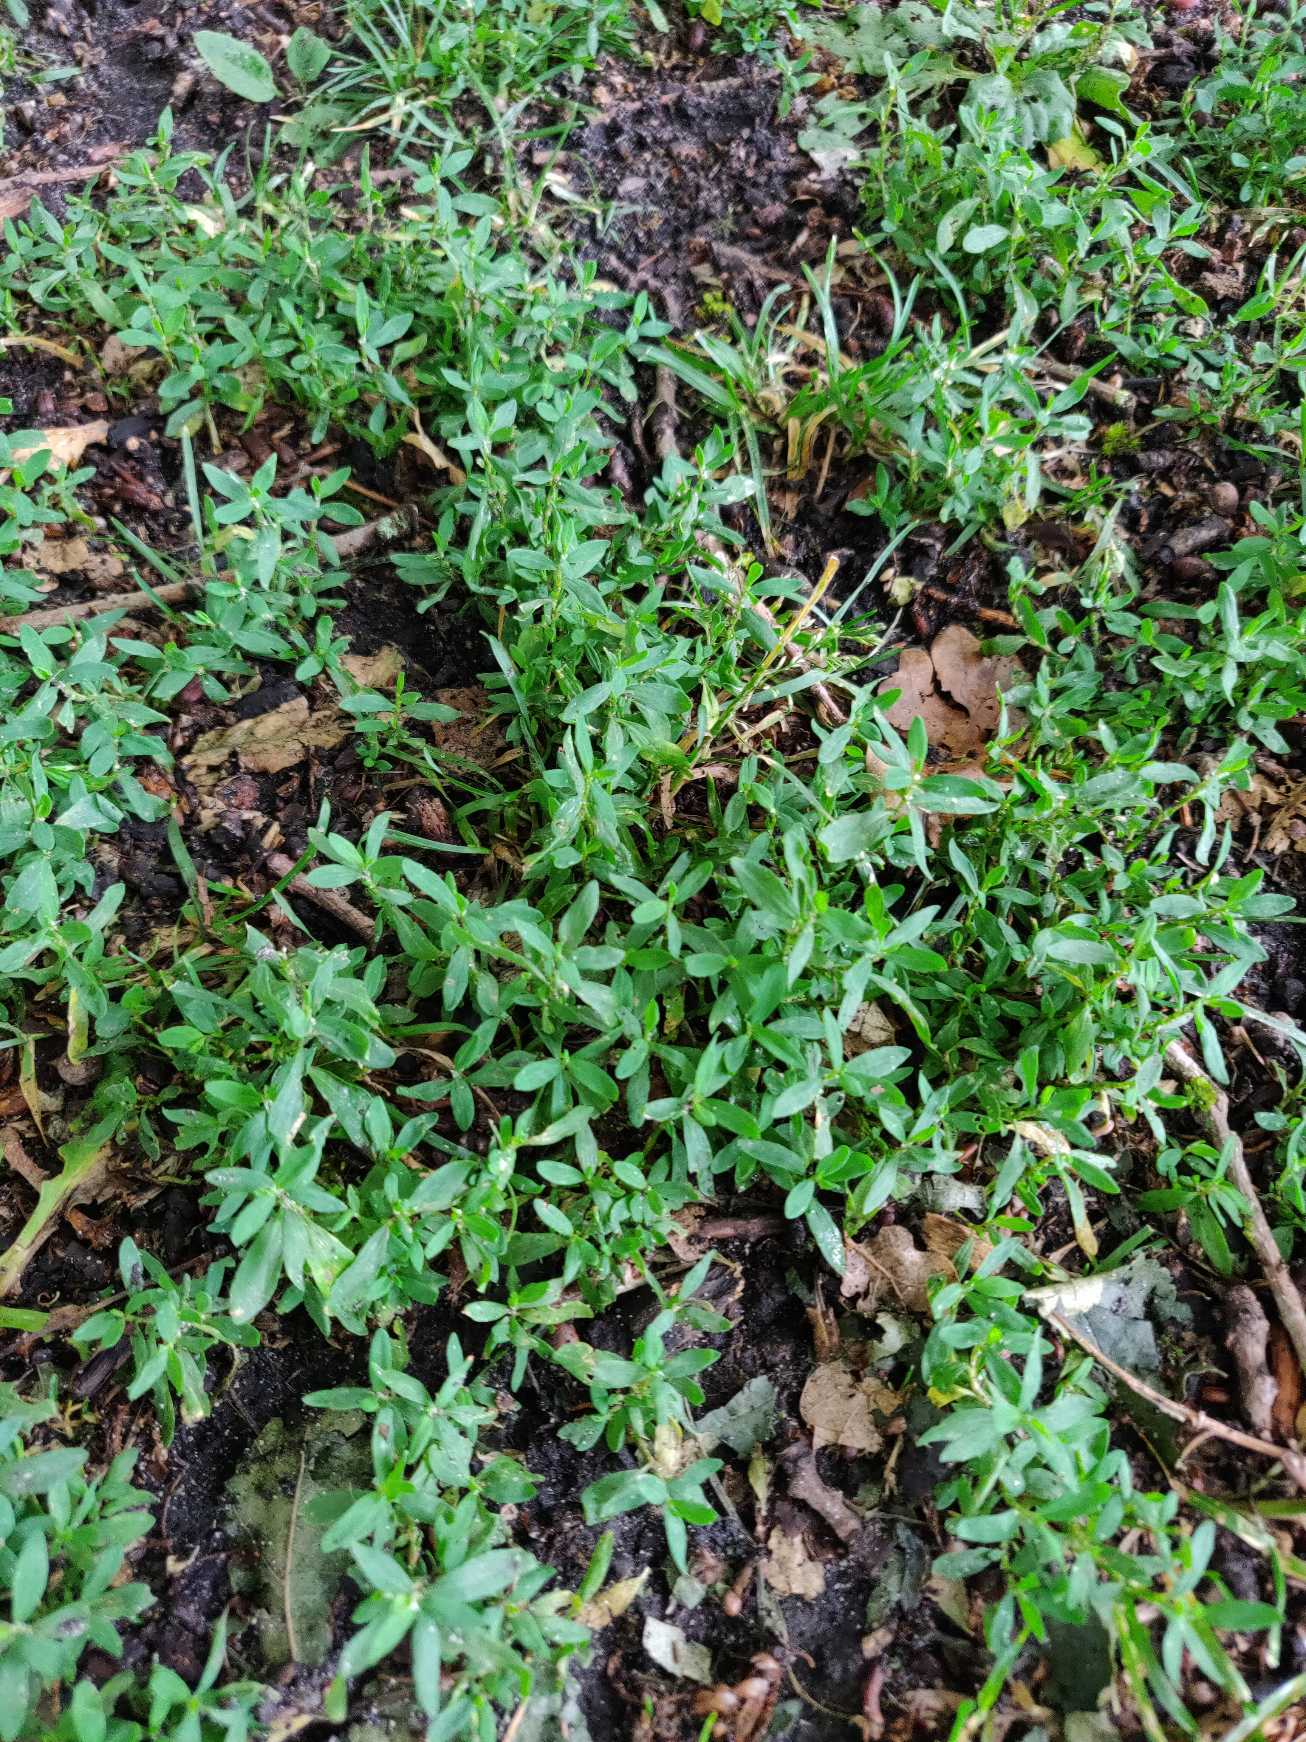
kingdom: Plantae
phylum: Tracheophyta
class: Magnoliopsida
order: Caryophyllales
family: Polygonaceae
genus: Polygonum
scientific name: Polygonum aviculare
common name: Vej-pileurt
